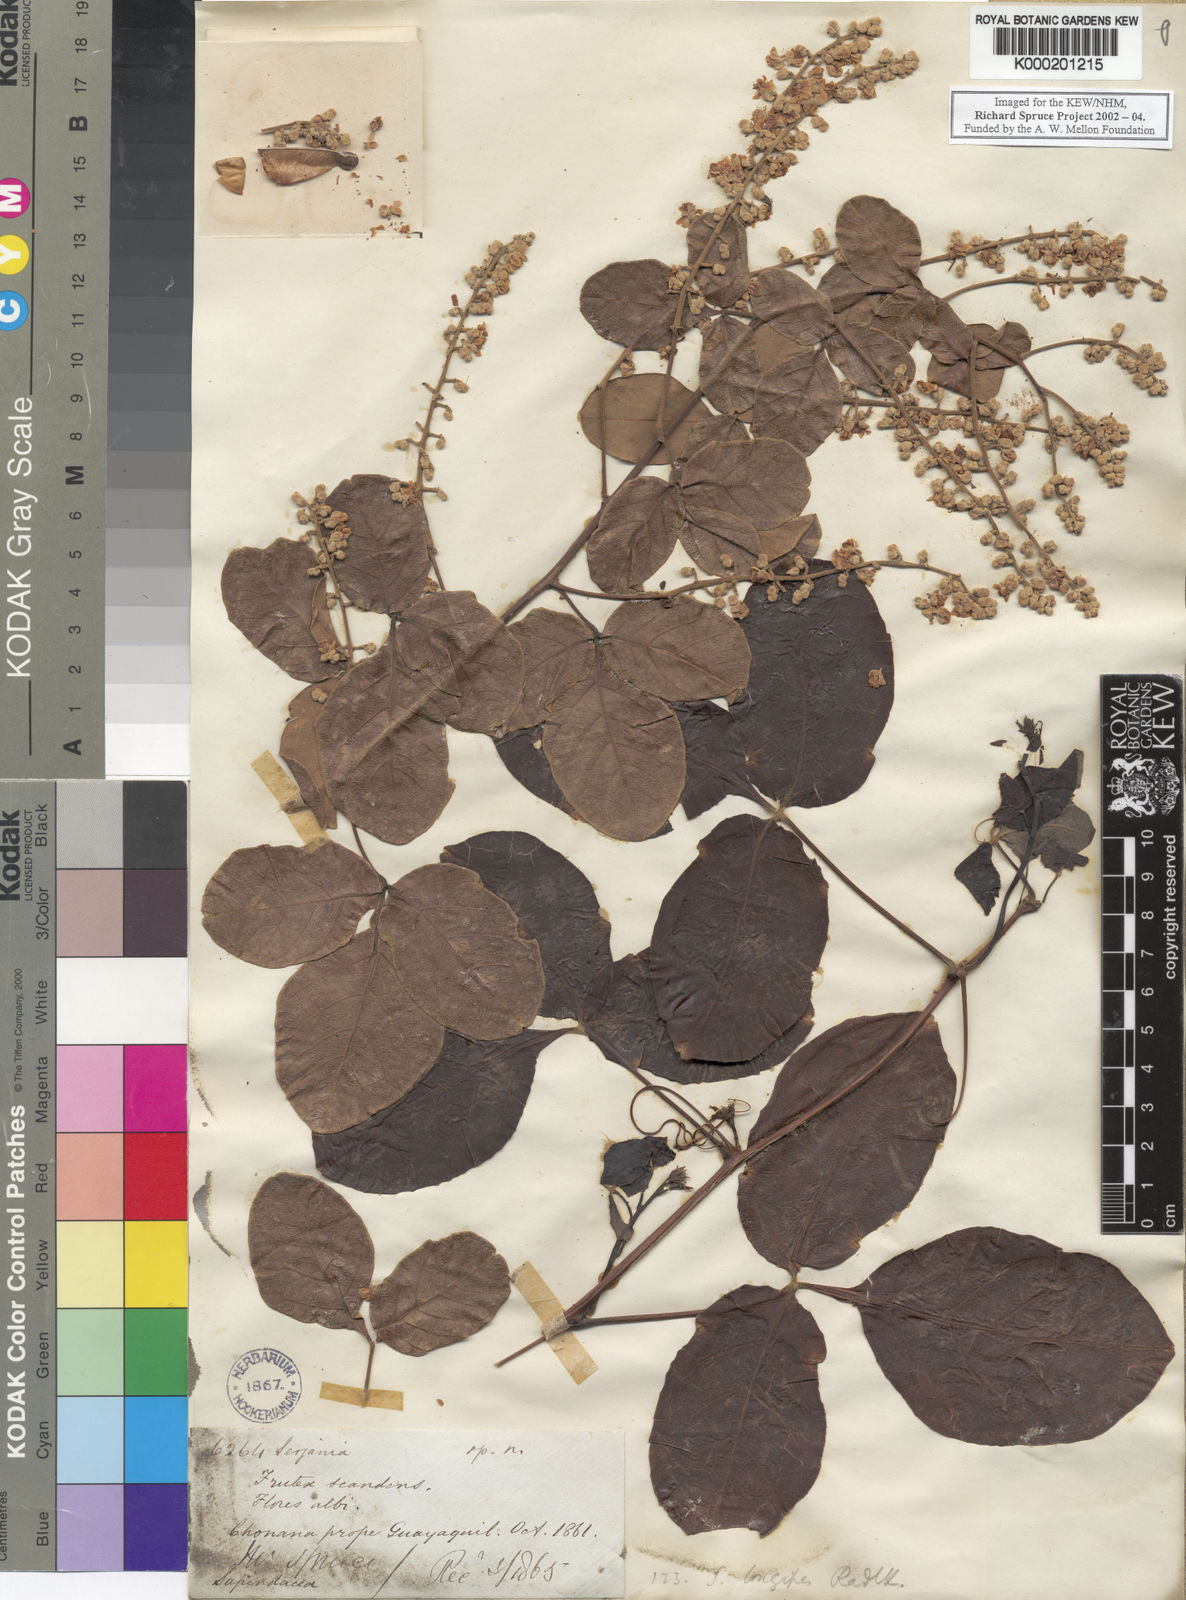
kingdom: Plantae
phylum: Tracheophyta
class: Magnoliopsida
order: Sapindales
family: Sapindaceae
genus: Serjania
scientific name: Serjania longipes
